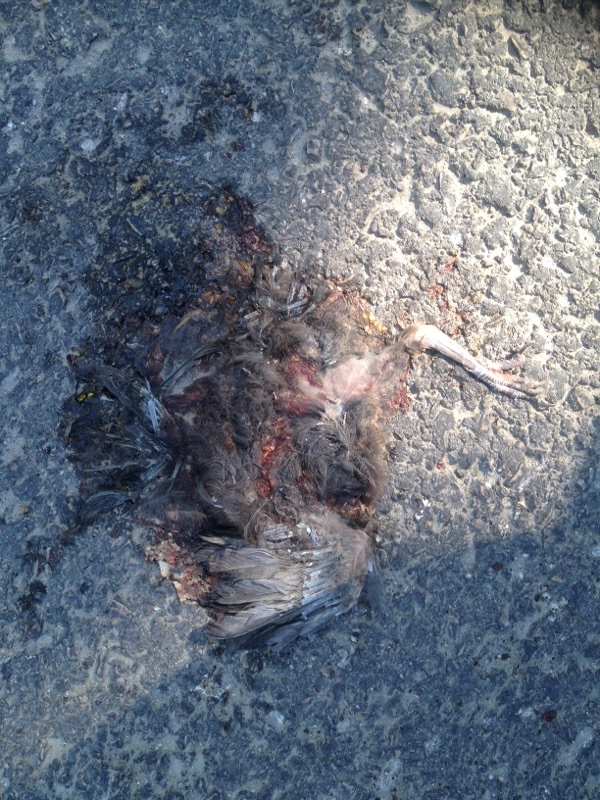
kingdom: Animalia
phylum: Chordata
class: Aves
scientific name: Aves
